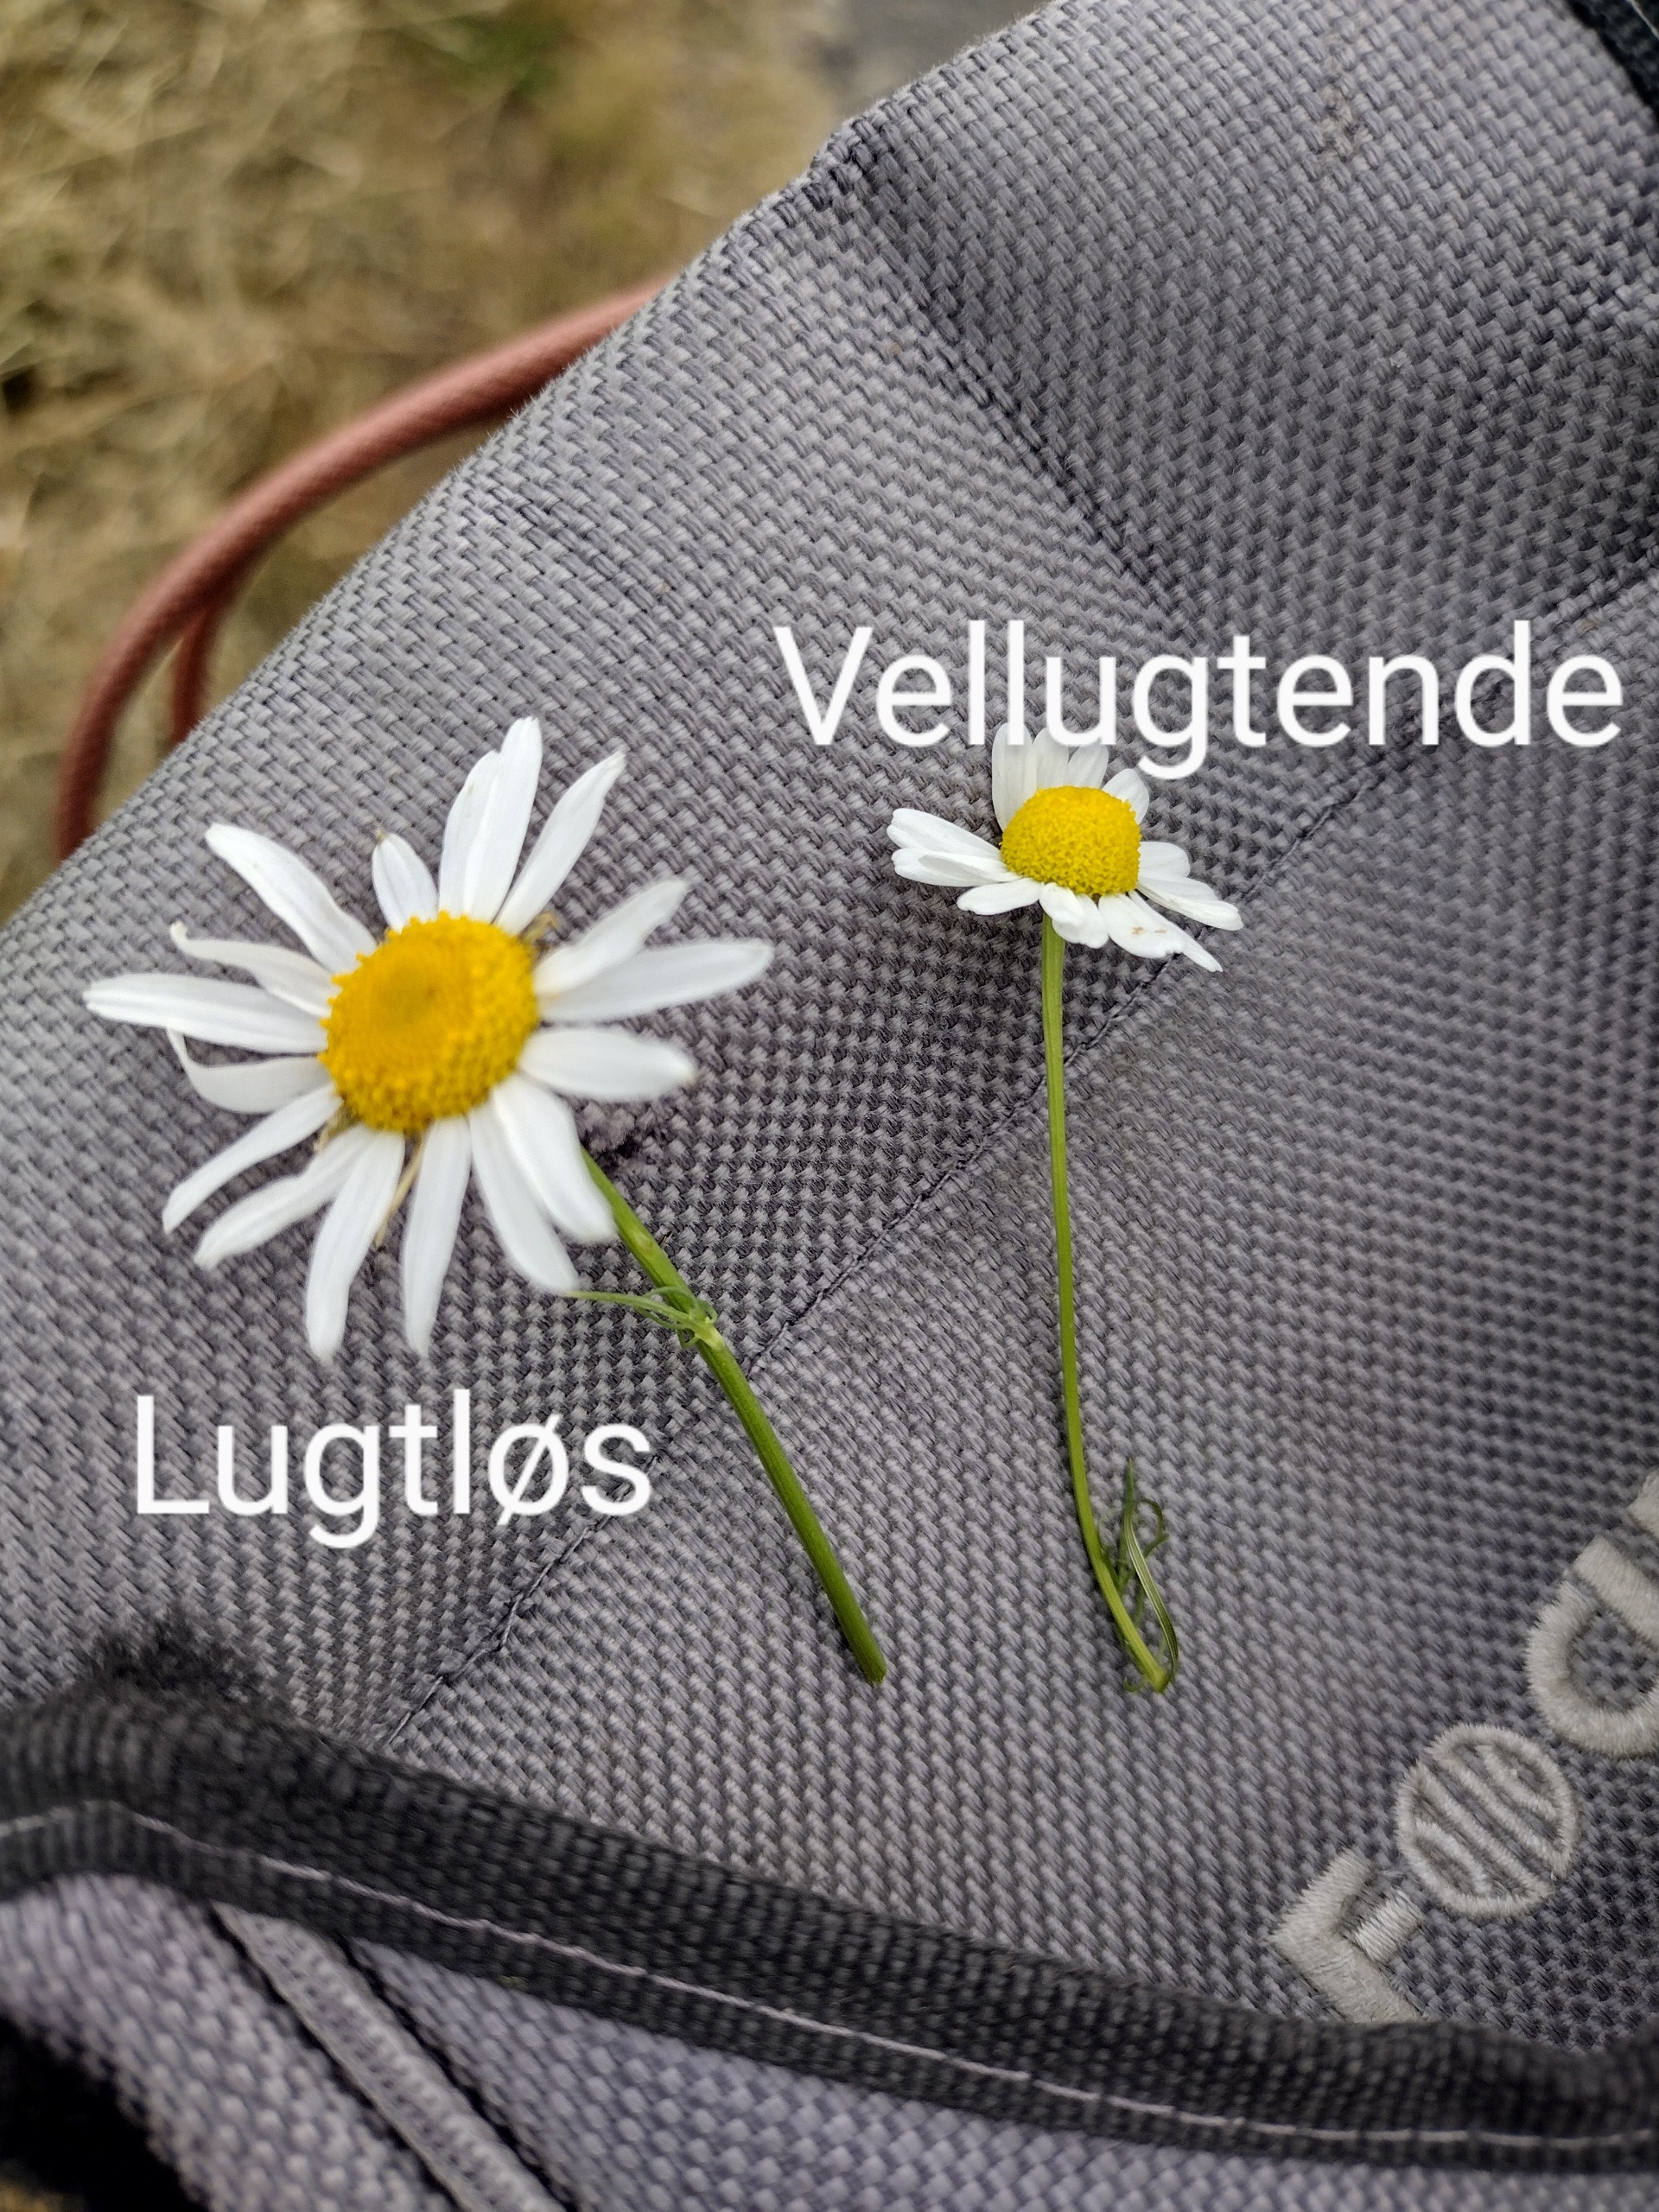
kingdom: Plantae
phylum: Tracheophyta
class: Magnoliopsida
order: Asterales
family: Asteraceae
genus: Matricaria
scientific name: Matricaria chamomilla
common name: Vellugtende kamille
